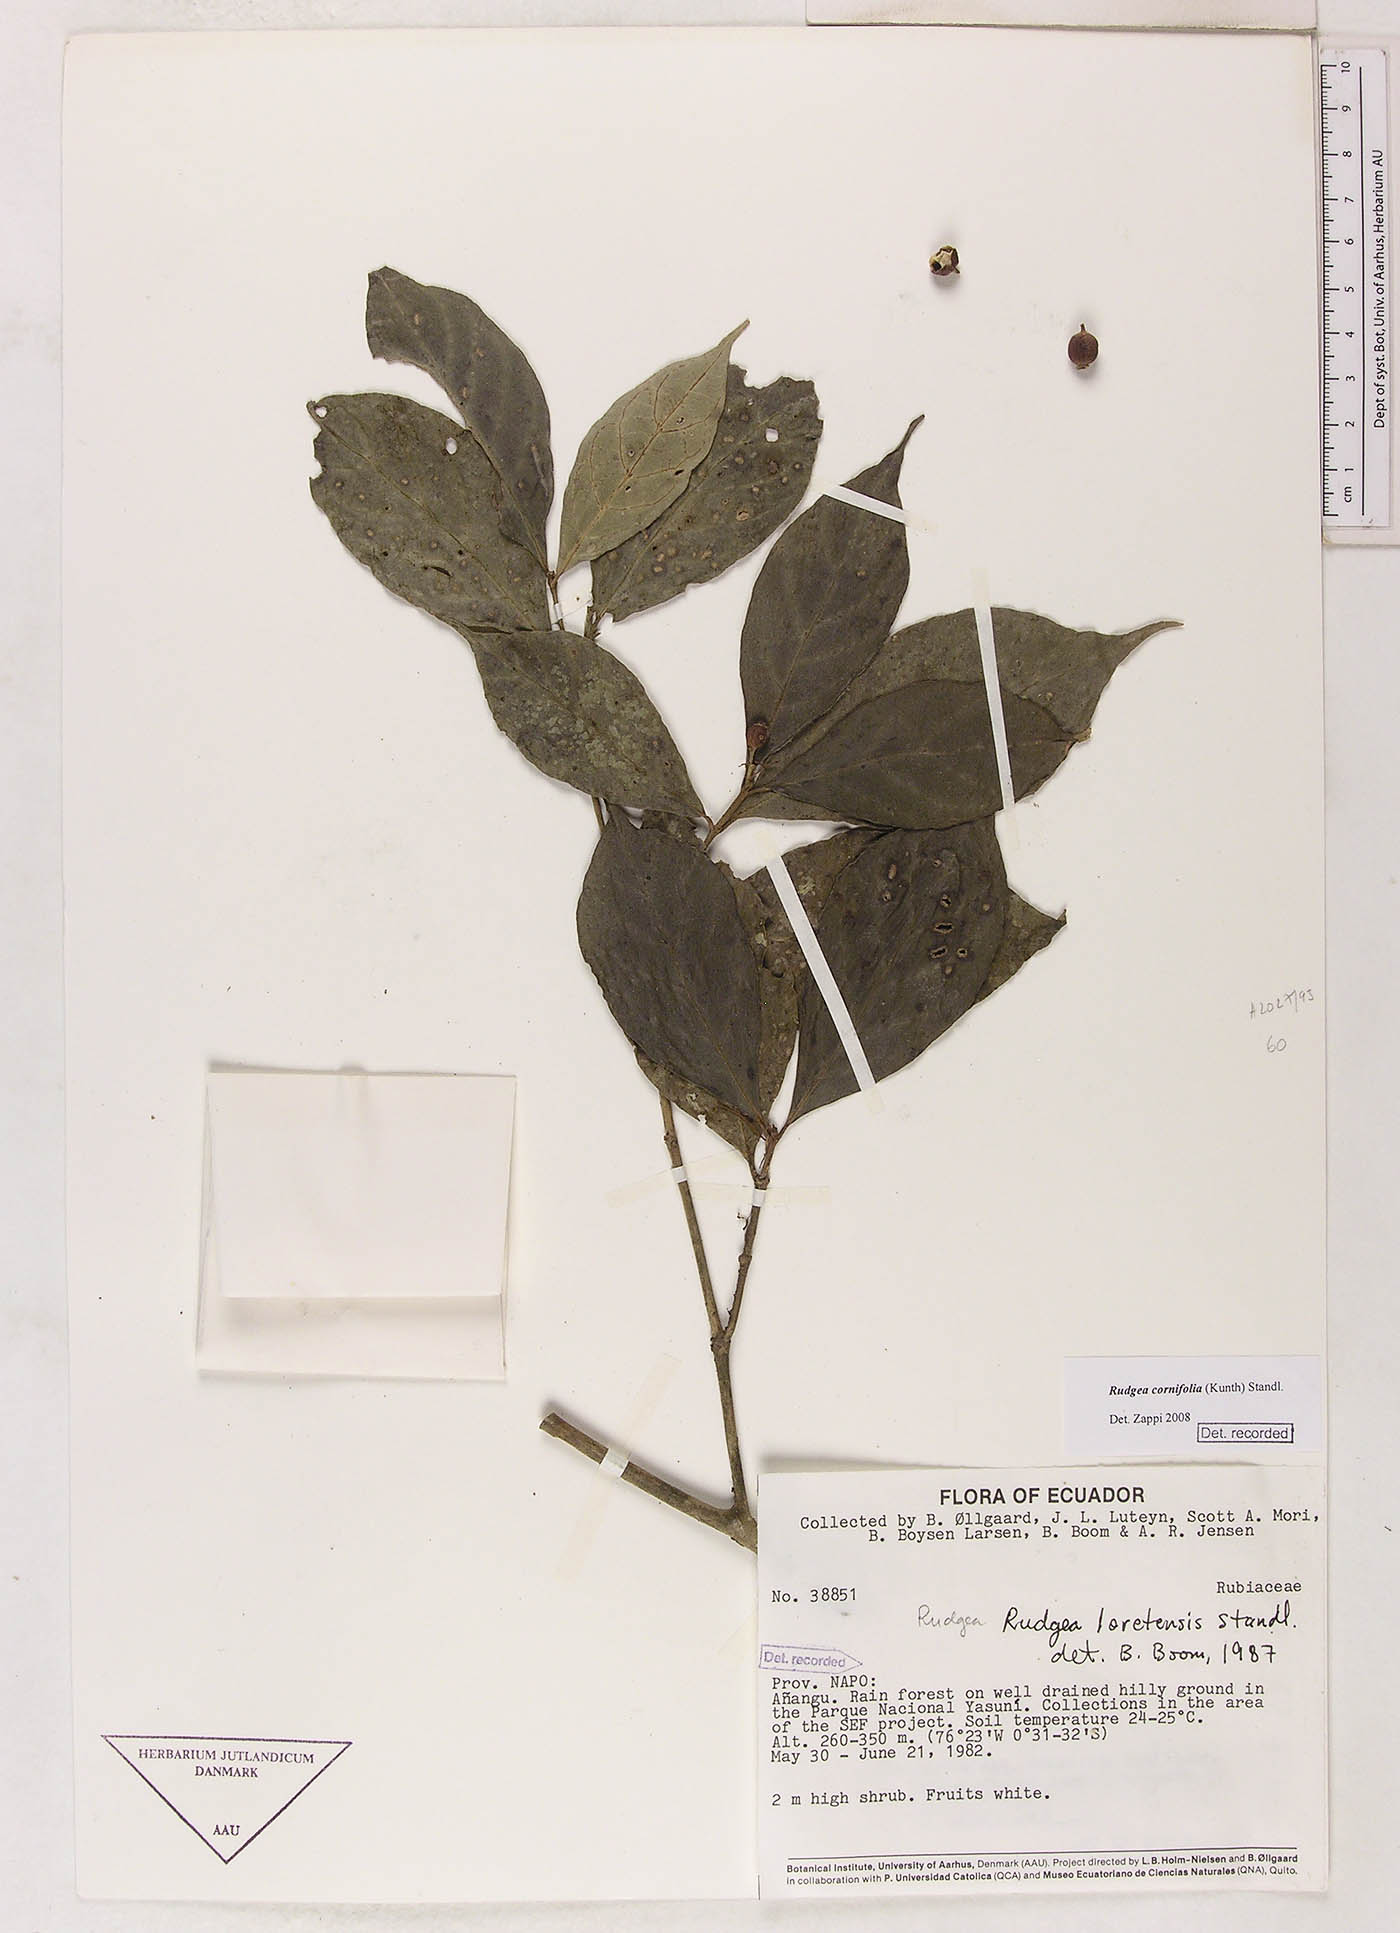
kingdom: Plantae
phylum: Tracheophyta
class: Magnoliopsida
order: Gentianales
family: Rubiaceae
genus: Rudgea
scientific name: Rudgea cornifolia
